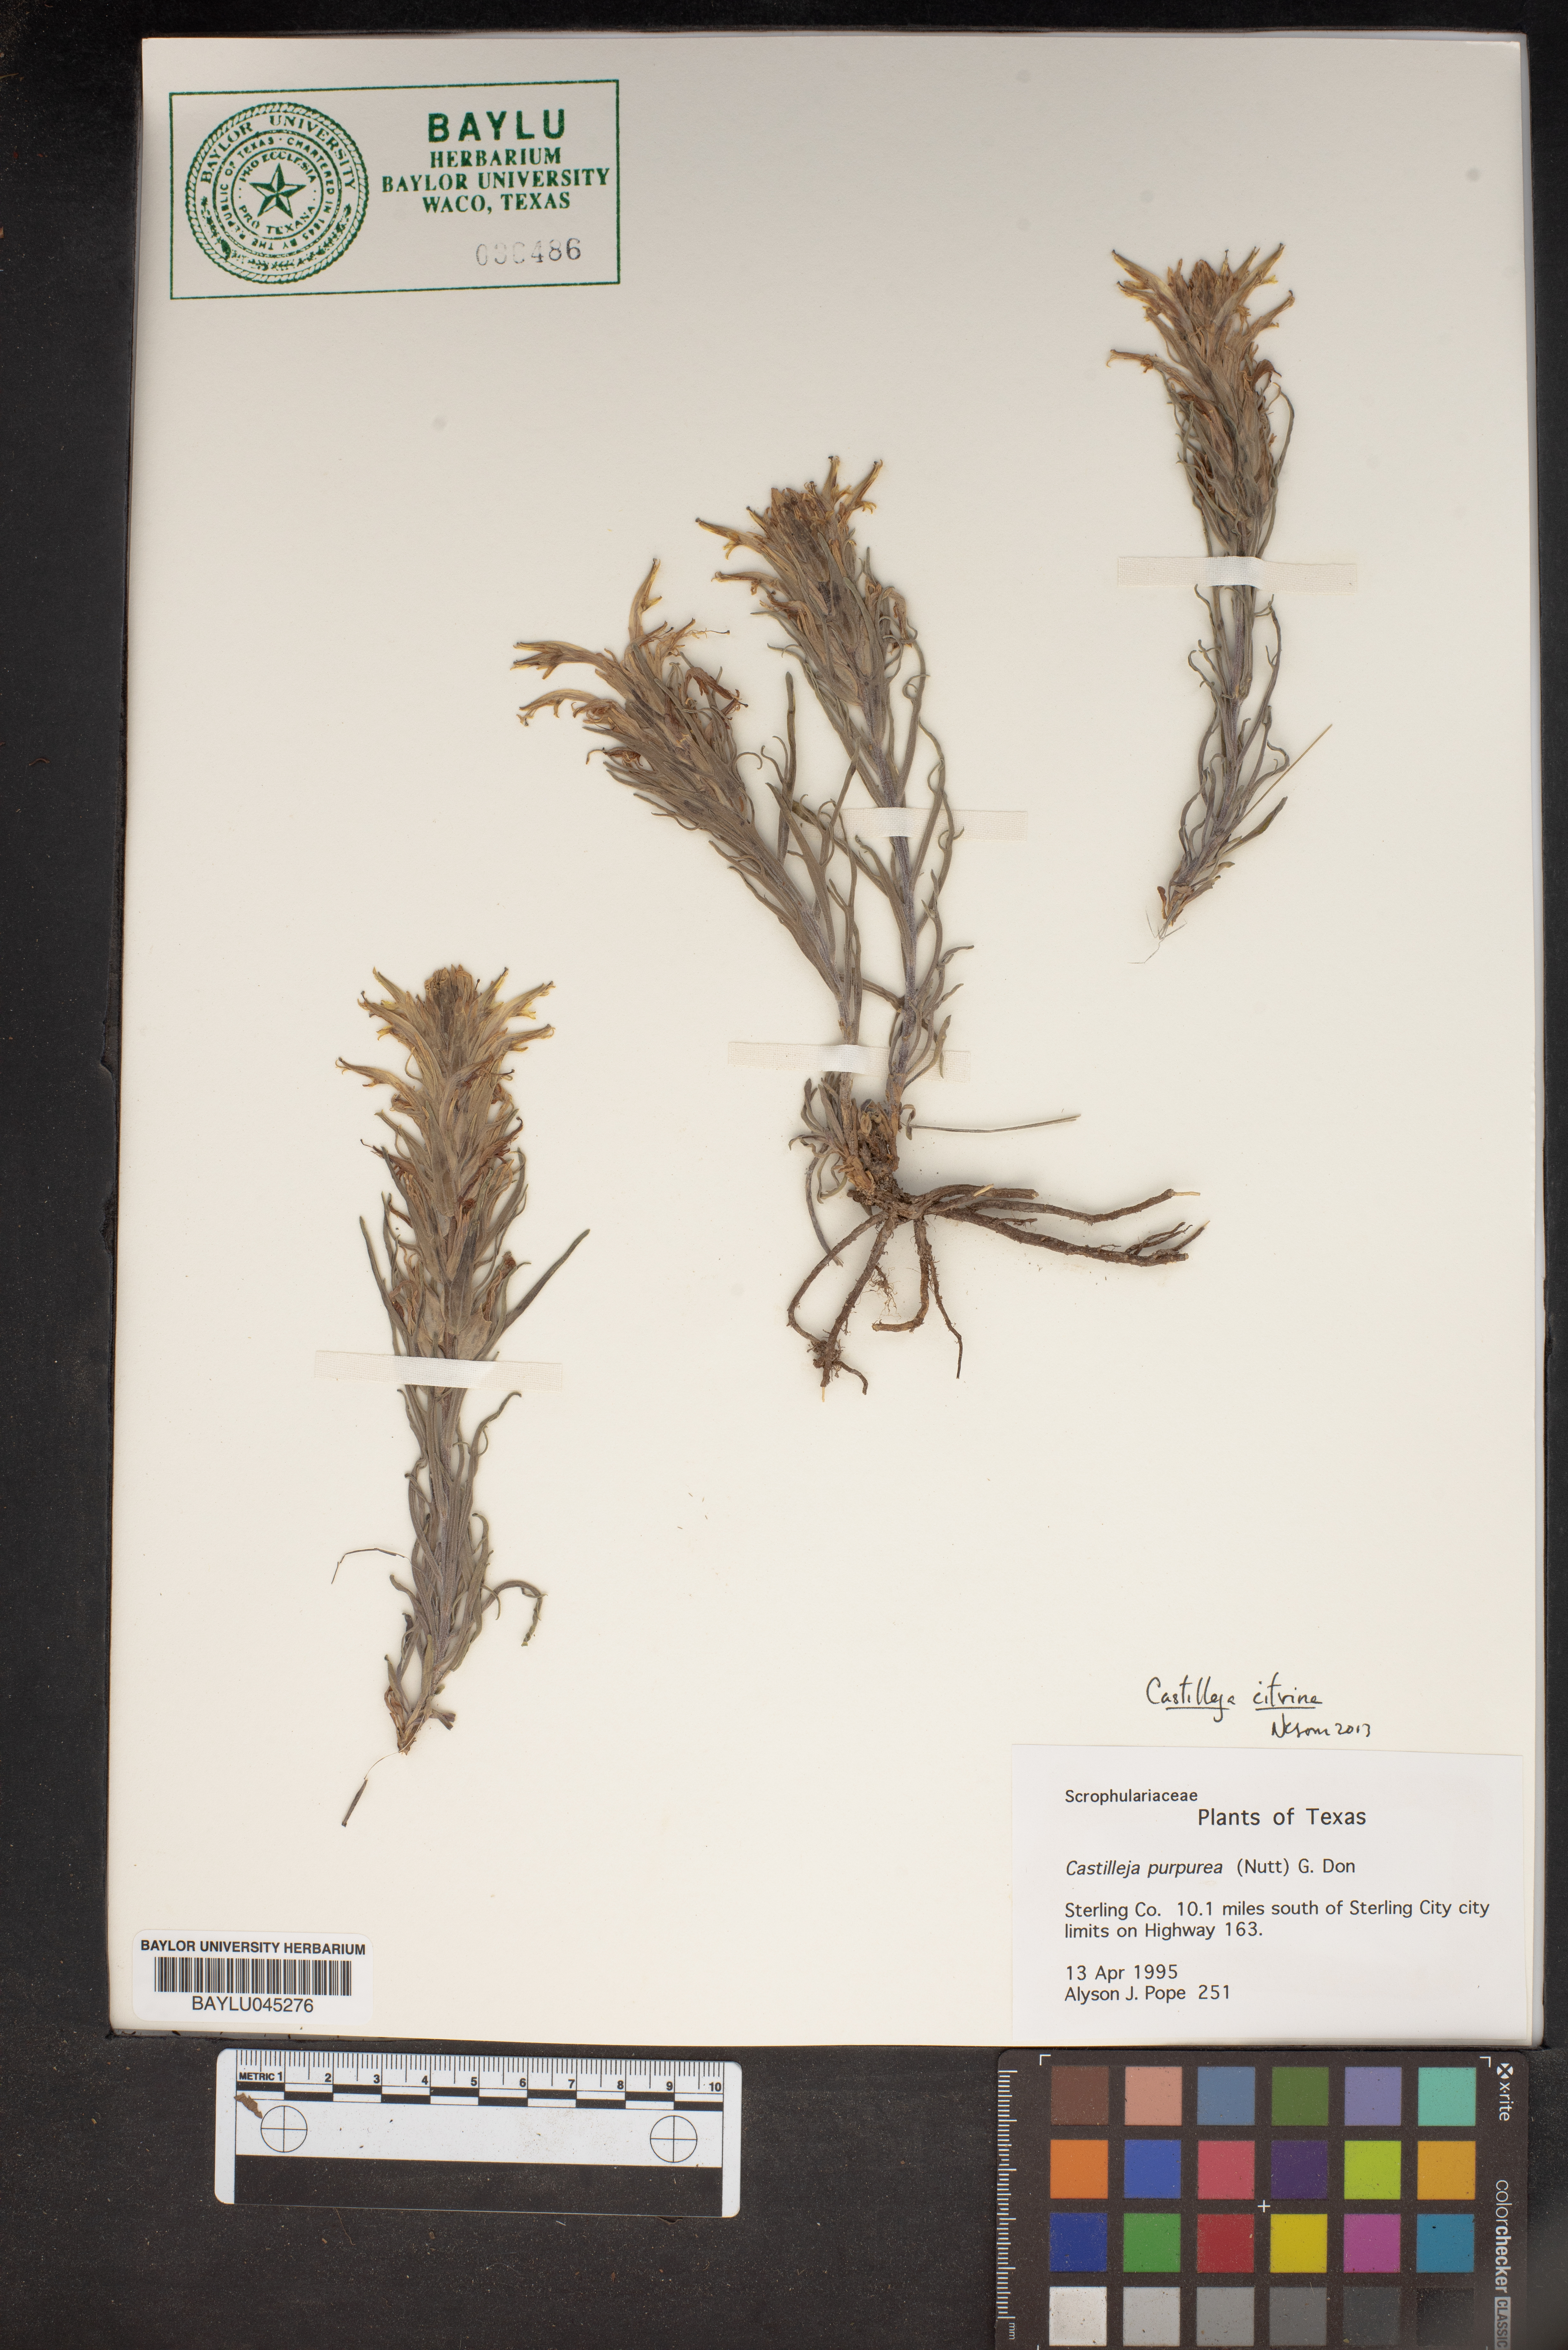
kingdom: Plantae
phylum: Tracheophyta
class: Magnoliopsida
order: Lamiales
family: Orobanchaceae
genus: Castilleja
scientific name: Castilleja purpurea
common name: Plains paintbrush
